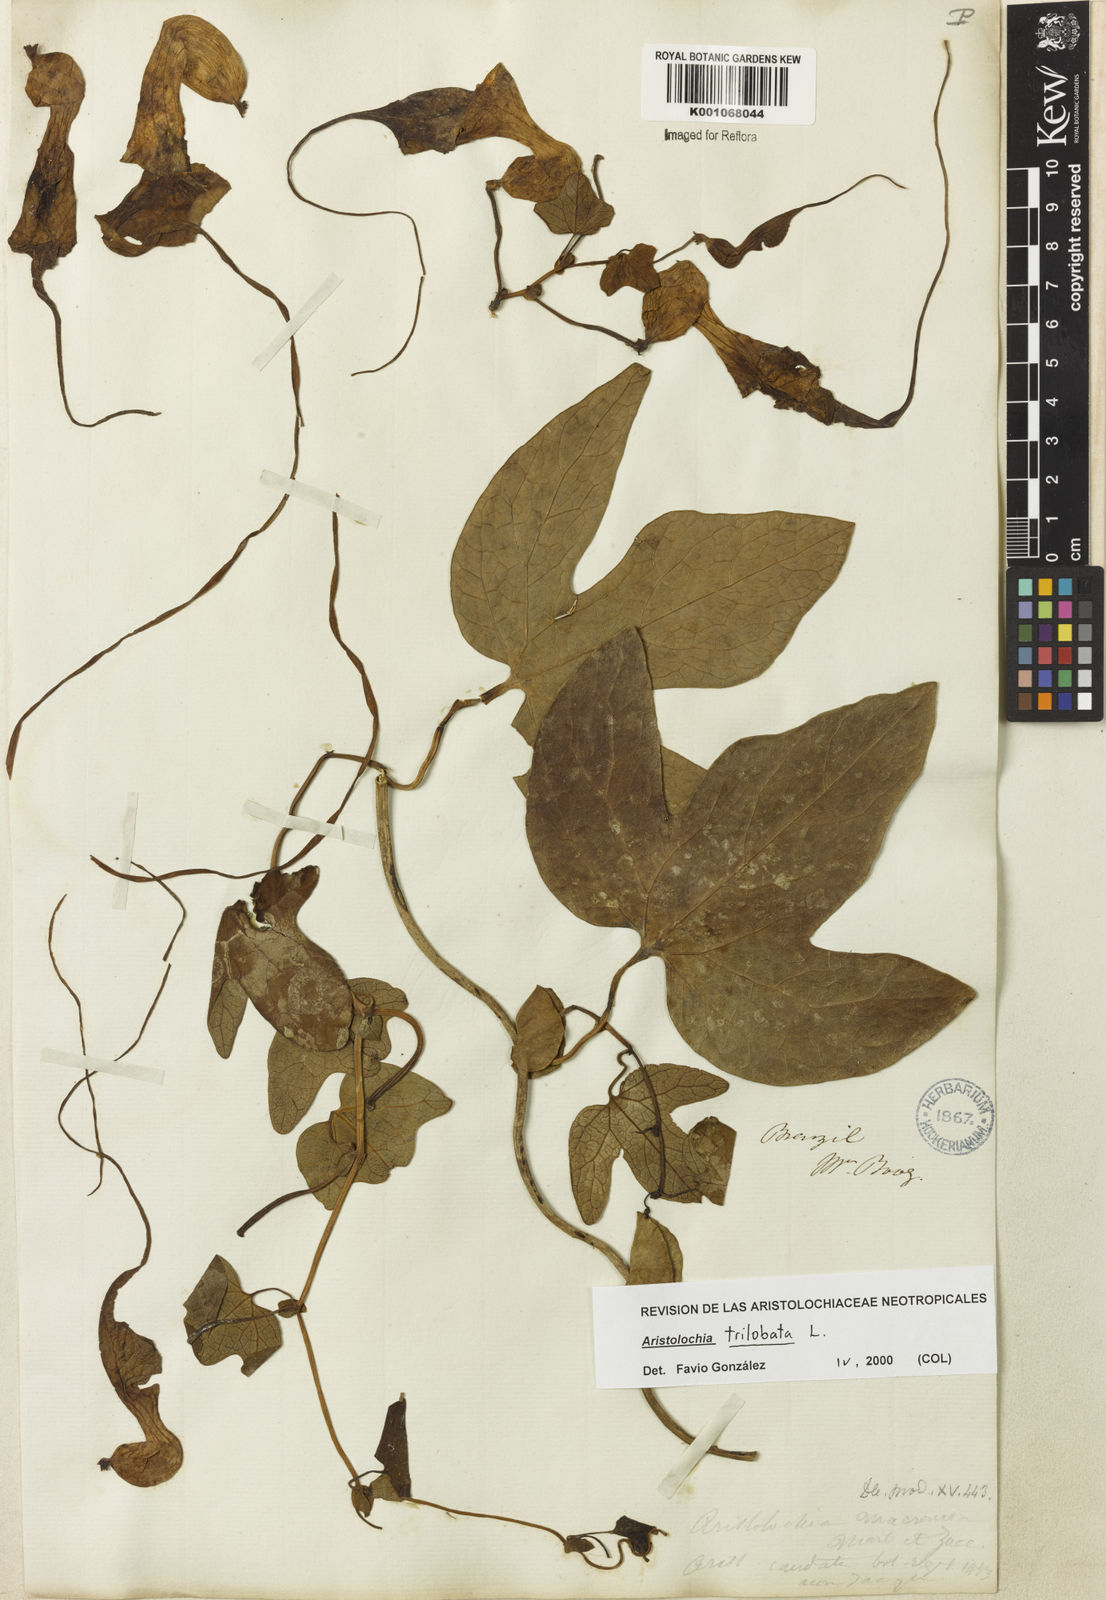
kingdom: Plantae
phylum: Tracheophyta
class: Magnoliopsida
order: Piperales
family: Aristolochiaceae
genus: Aristolochia
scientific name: Aristolochia trilobata
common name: Dutchman's pipe
